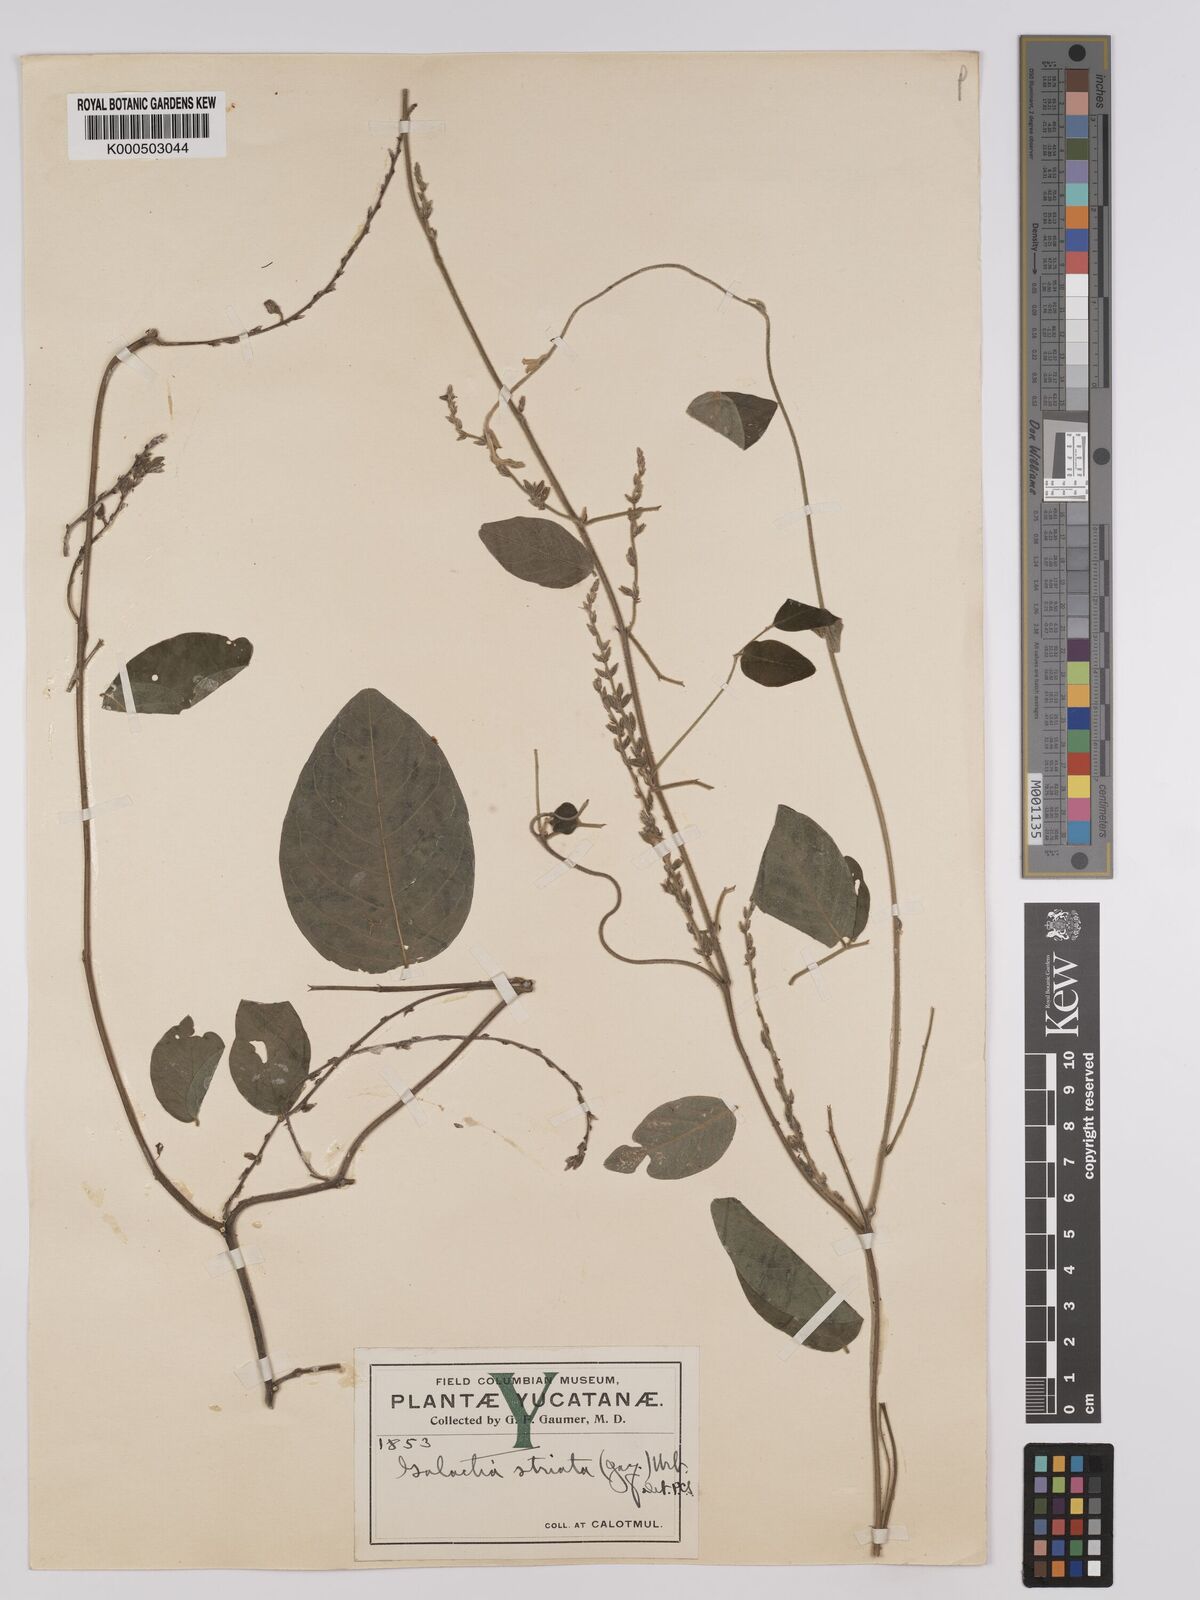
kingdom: Plantae
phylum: Tracheophyta
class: Magnoliopsida
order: Fabales
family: Fabaceae
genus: Galactia
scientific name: Galactia striata
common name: Florida hammock milkpea
